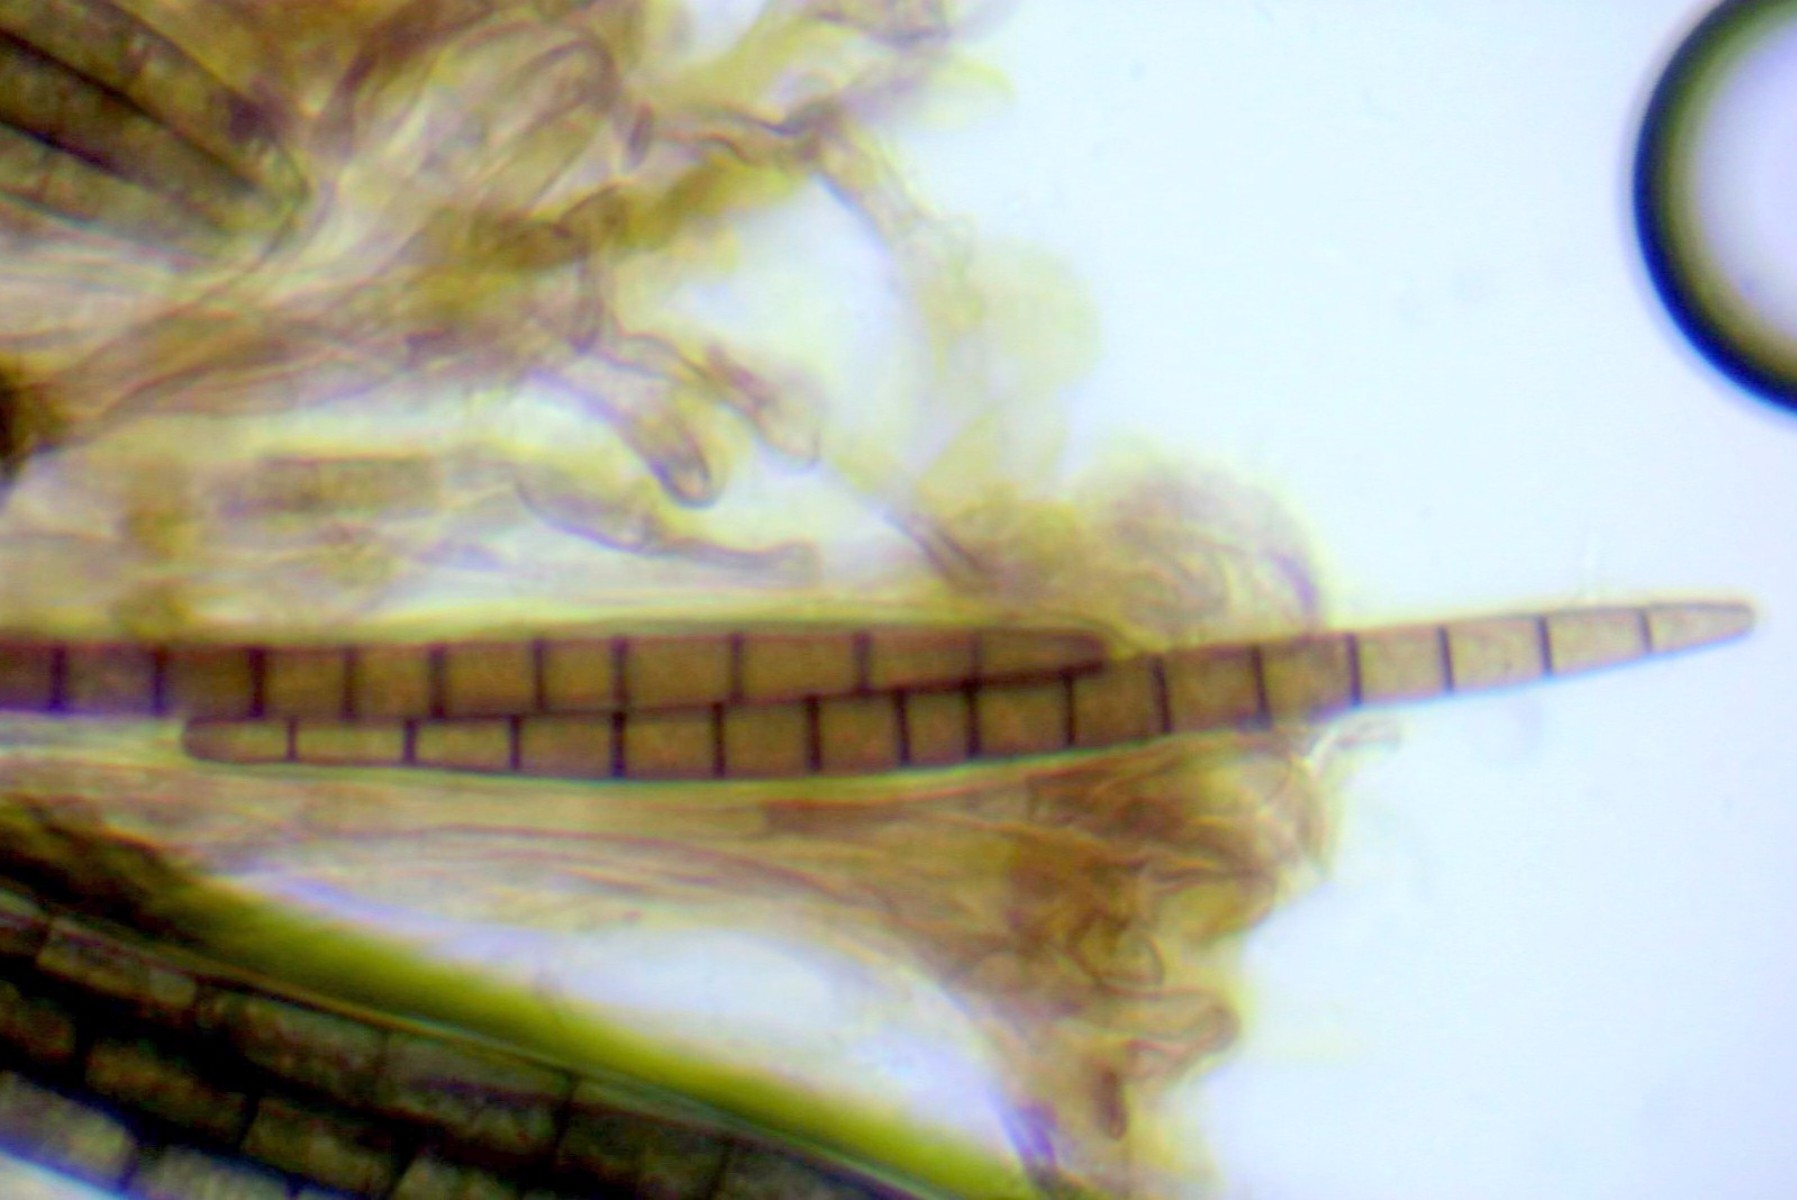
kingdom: Fungi
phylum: Ascomycota
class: Geoglossomycetes
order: Geoglossales
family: Geoglossaceae
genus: Trichoglossum
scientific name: Trichoglossum hirsutum
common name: håret jordtunge
